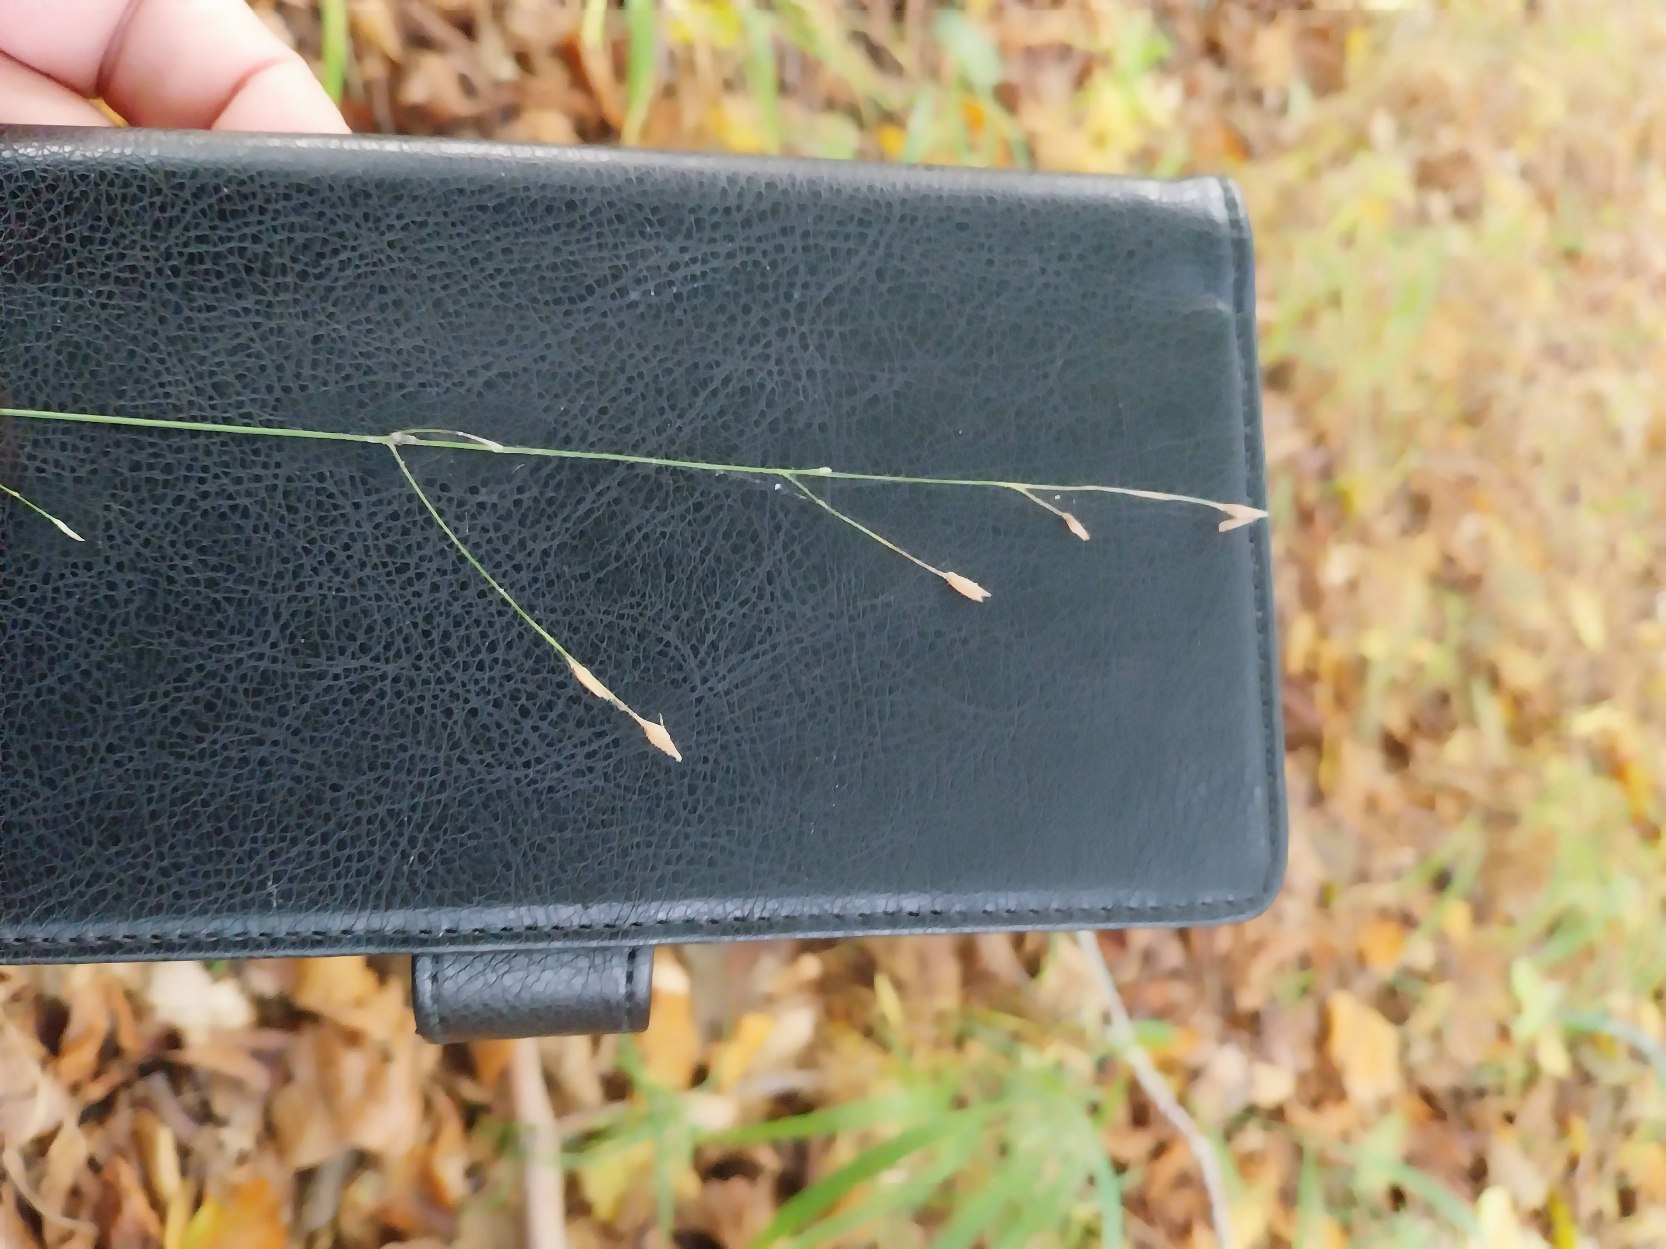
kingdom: Plantae
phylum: Tracheophyta
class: Liliopsida
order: Poales
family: Poaceae
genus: Melica
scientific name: Melica uniflora
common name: Enblomstret flitteraks
